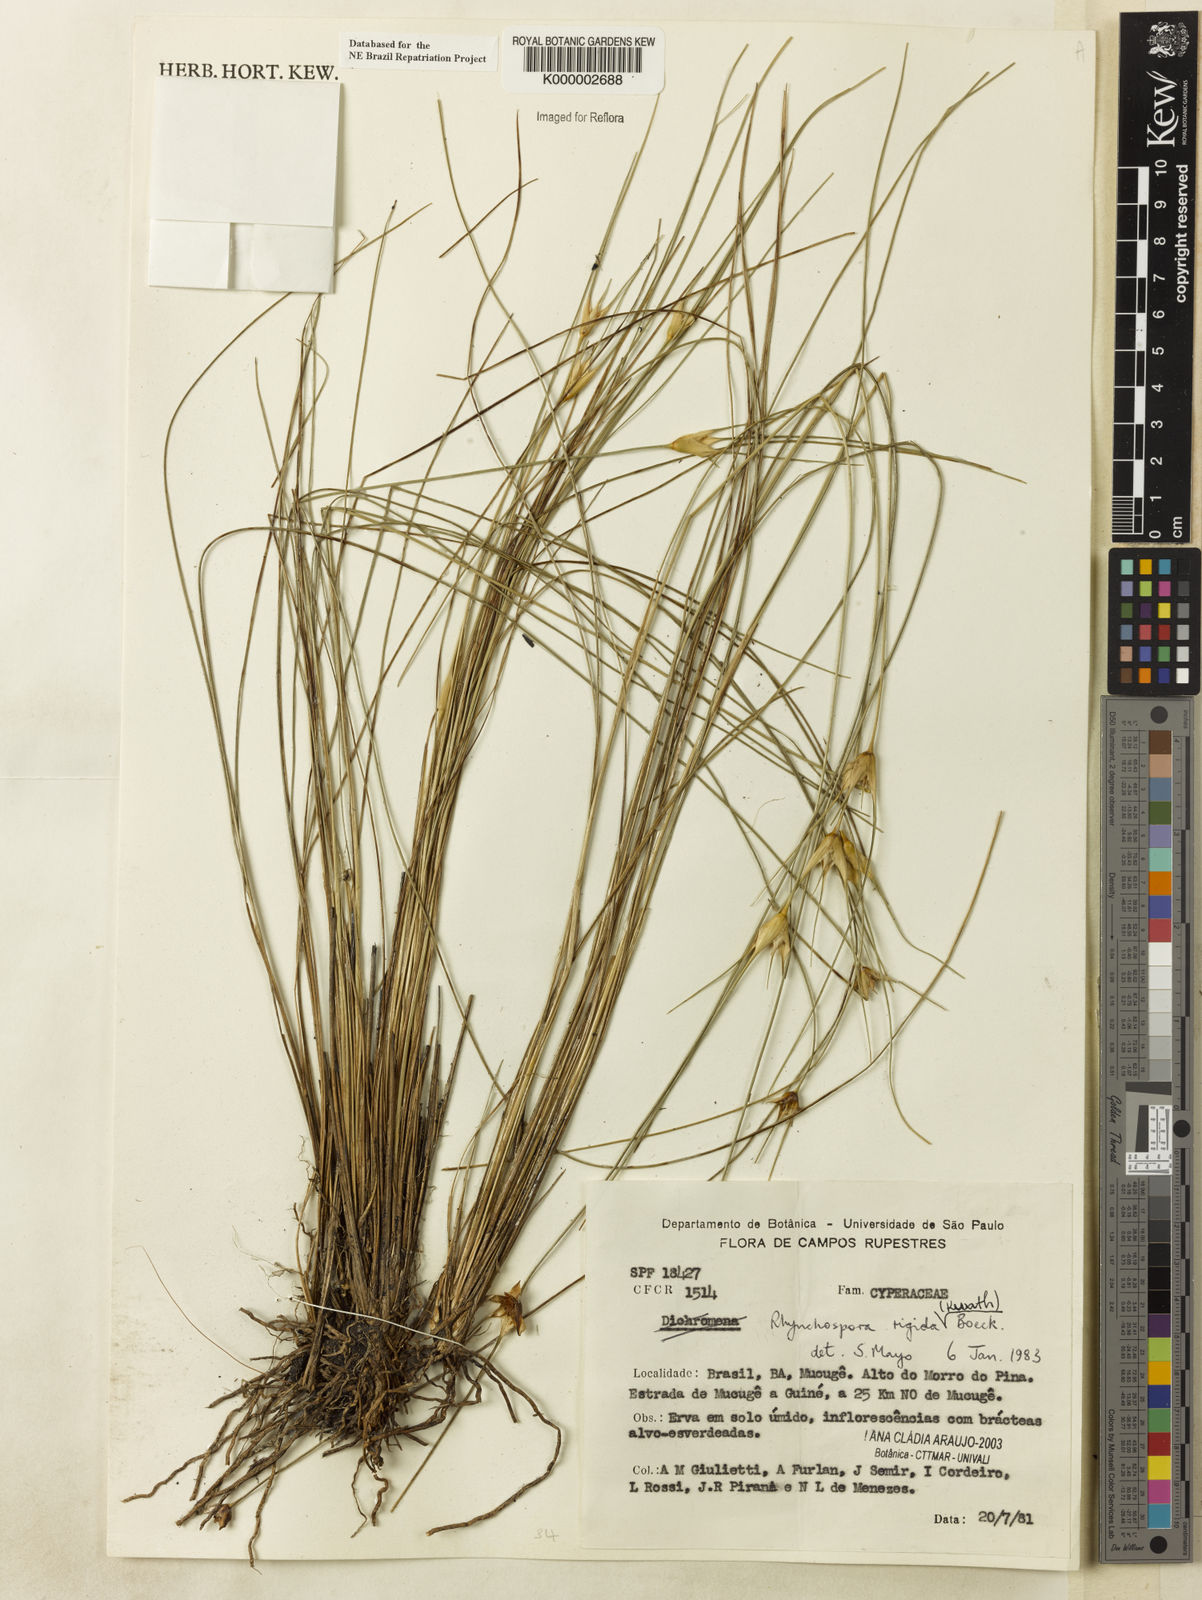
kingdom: Plantae
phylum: Tracheophyta
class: Liliopsida
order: Poales
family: Cyperaceae
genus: Rhynchospora
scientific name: Rhynchospora consanguinea
